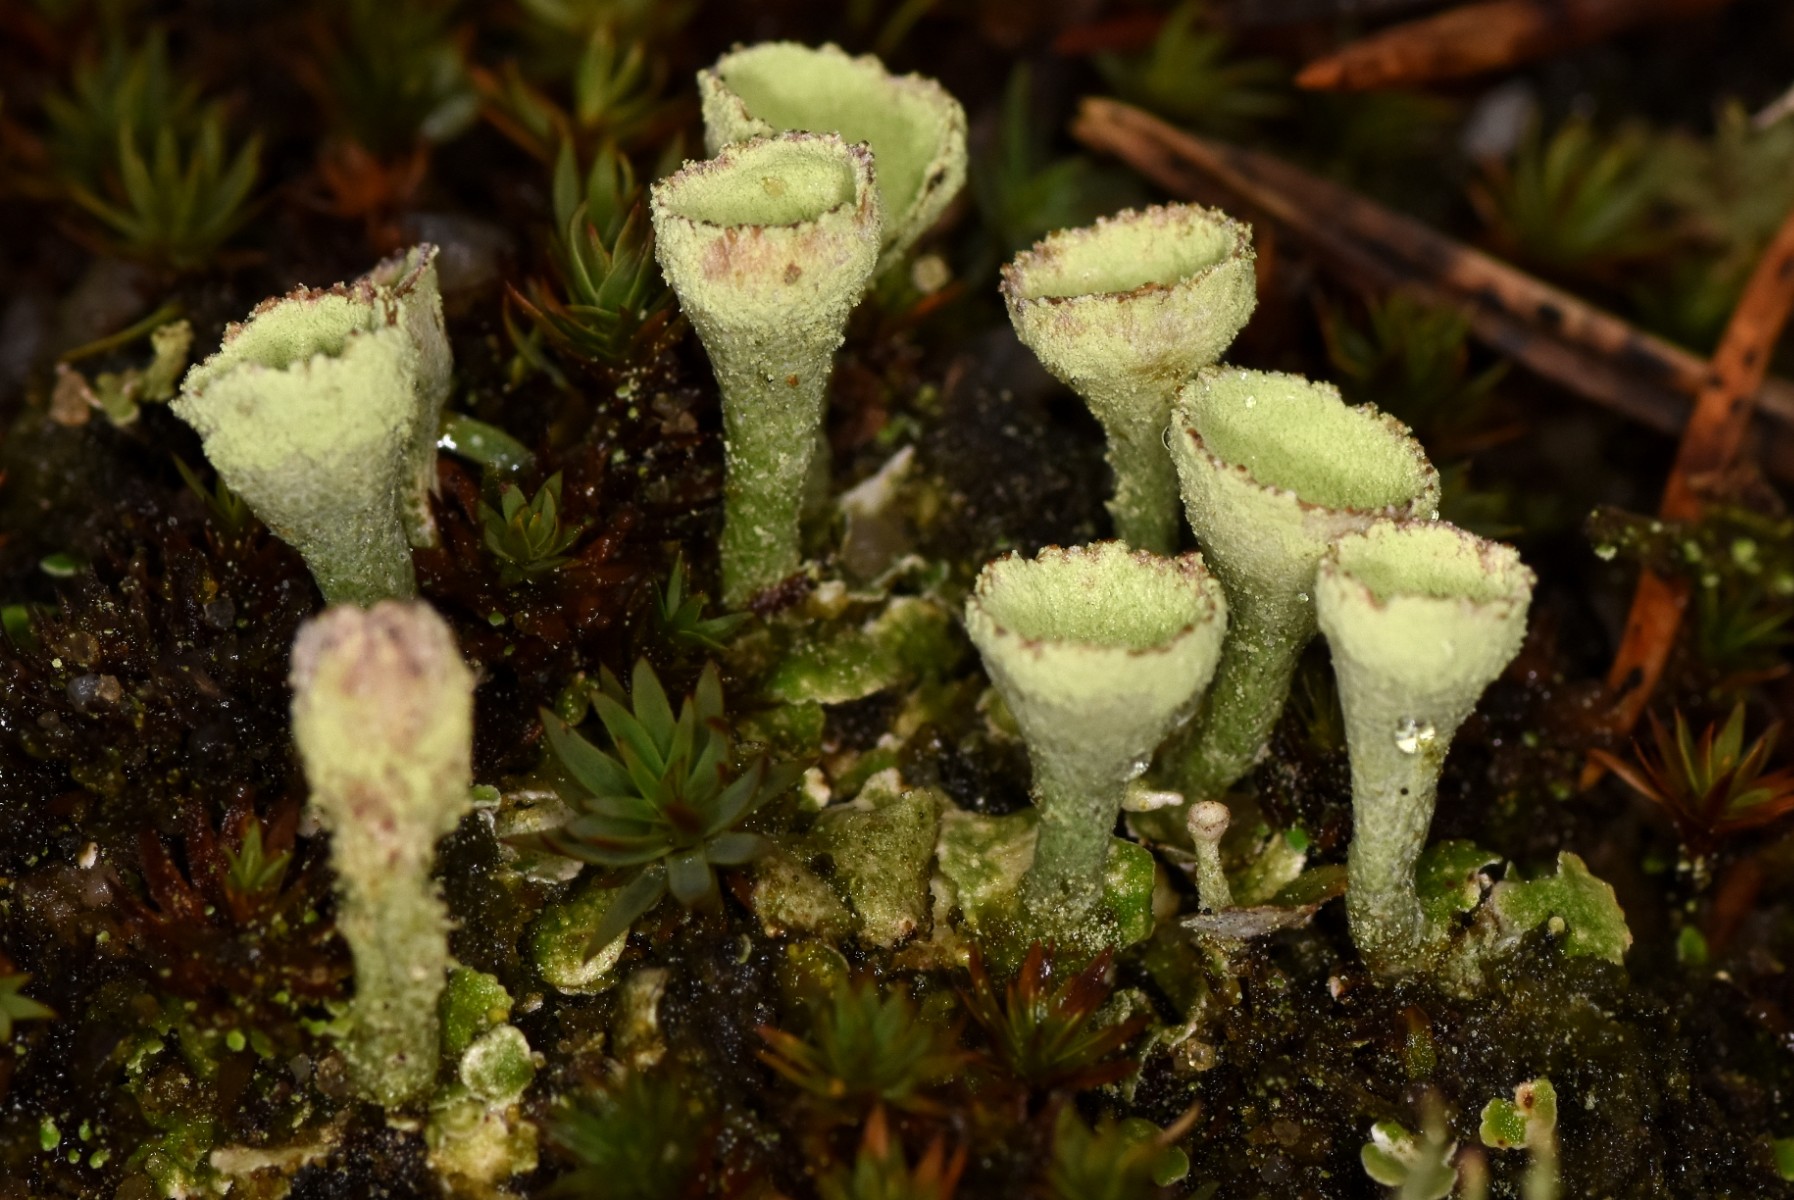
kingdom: Fungi
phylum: Ascomycota
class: Lecanoromycetes
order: Lecanorales
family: Cladoniaceae
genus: Cladonia
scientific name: Cladonia humilis
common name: lav bægerlav
